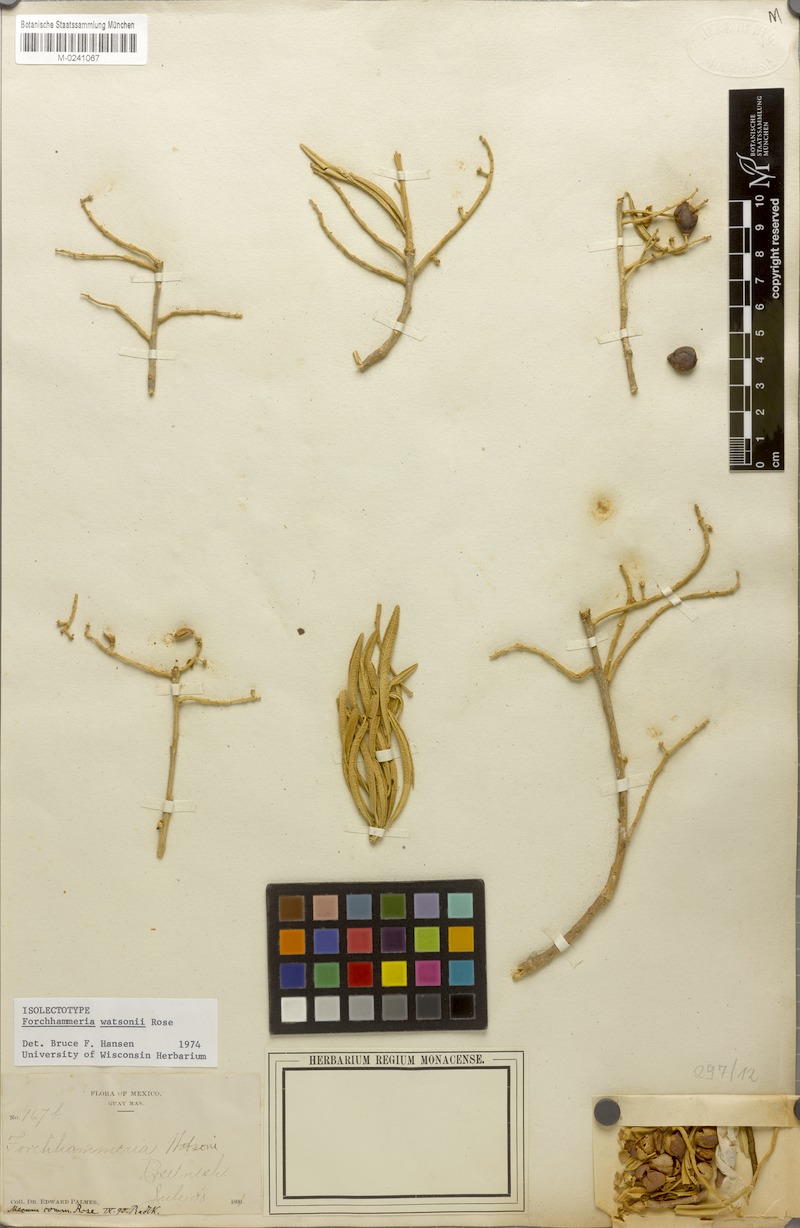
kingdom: Plantae
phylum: Tracheophyta
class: Magnoliopsida
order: Brassicales
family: Stixaceae
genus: Forchhammeria
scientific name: Forchhammeria watsonii
